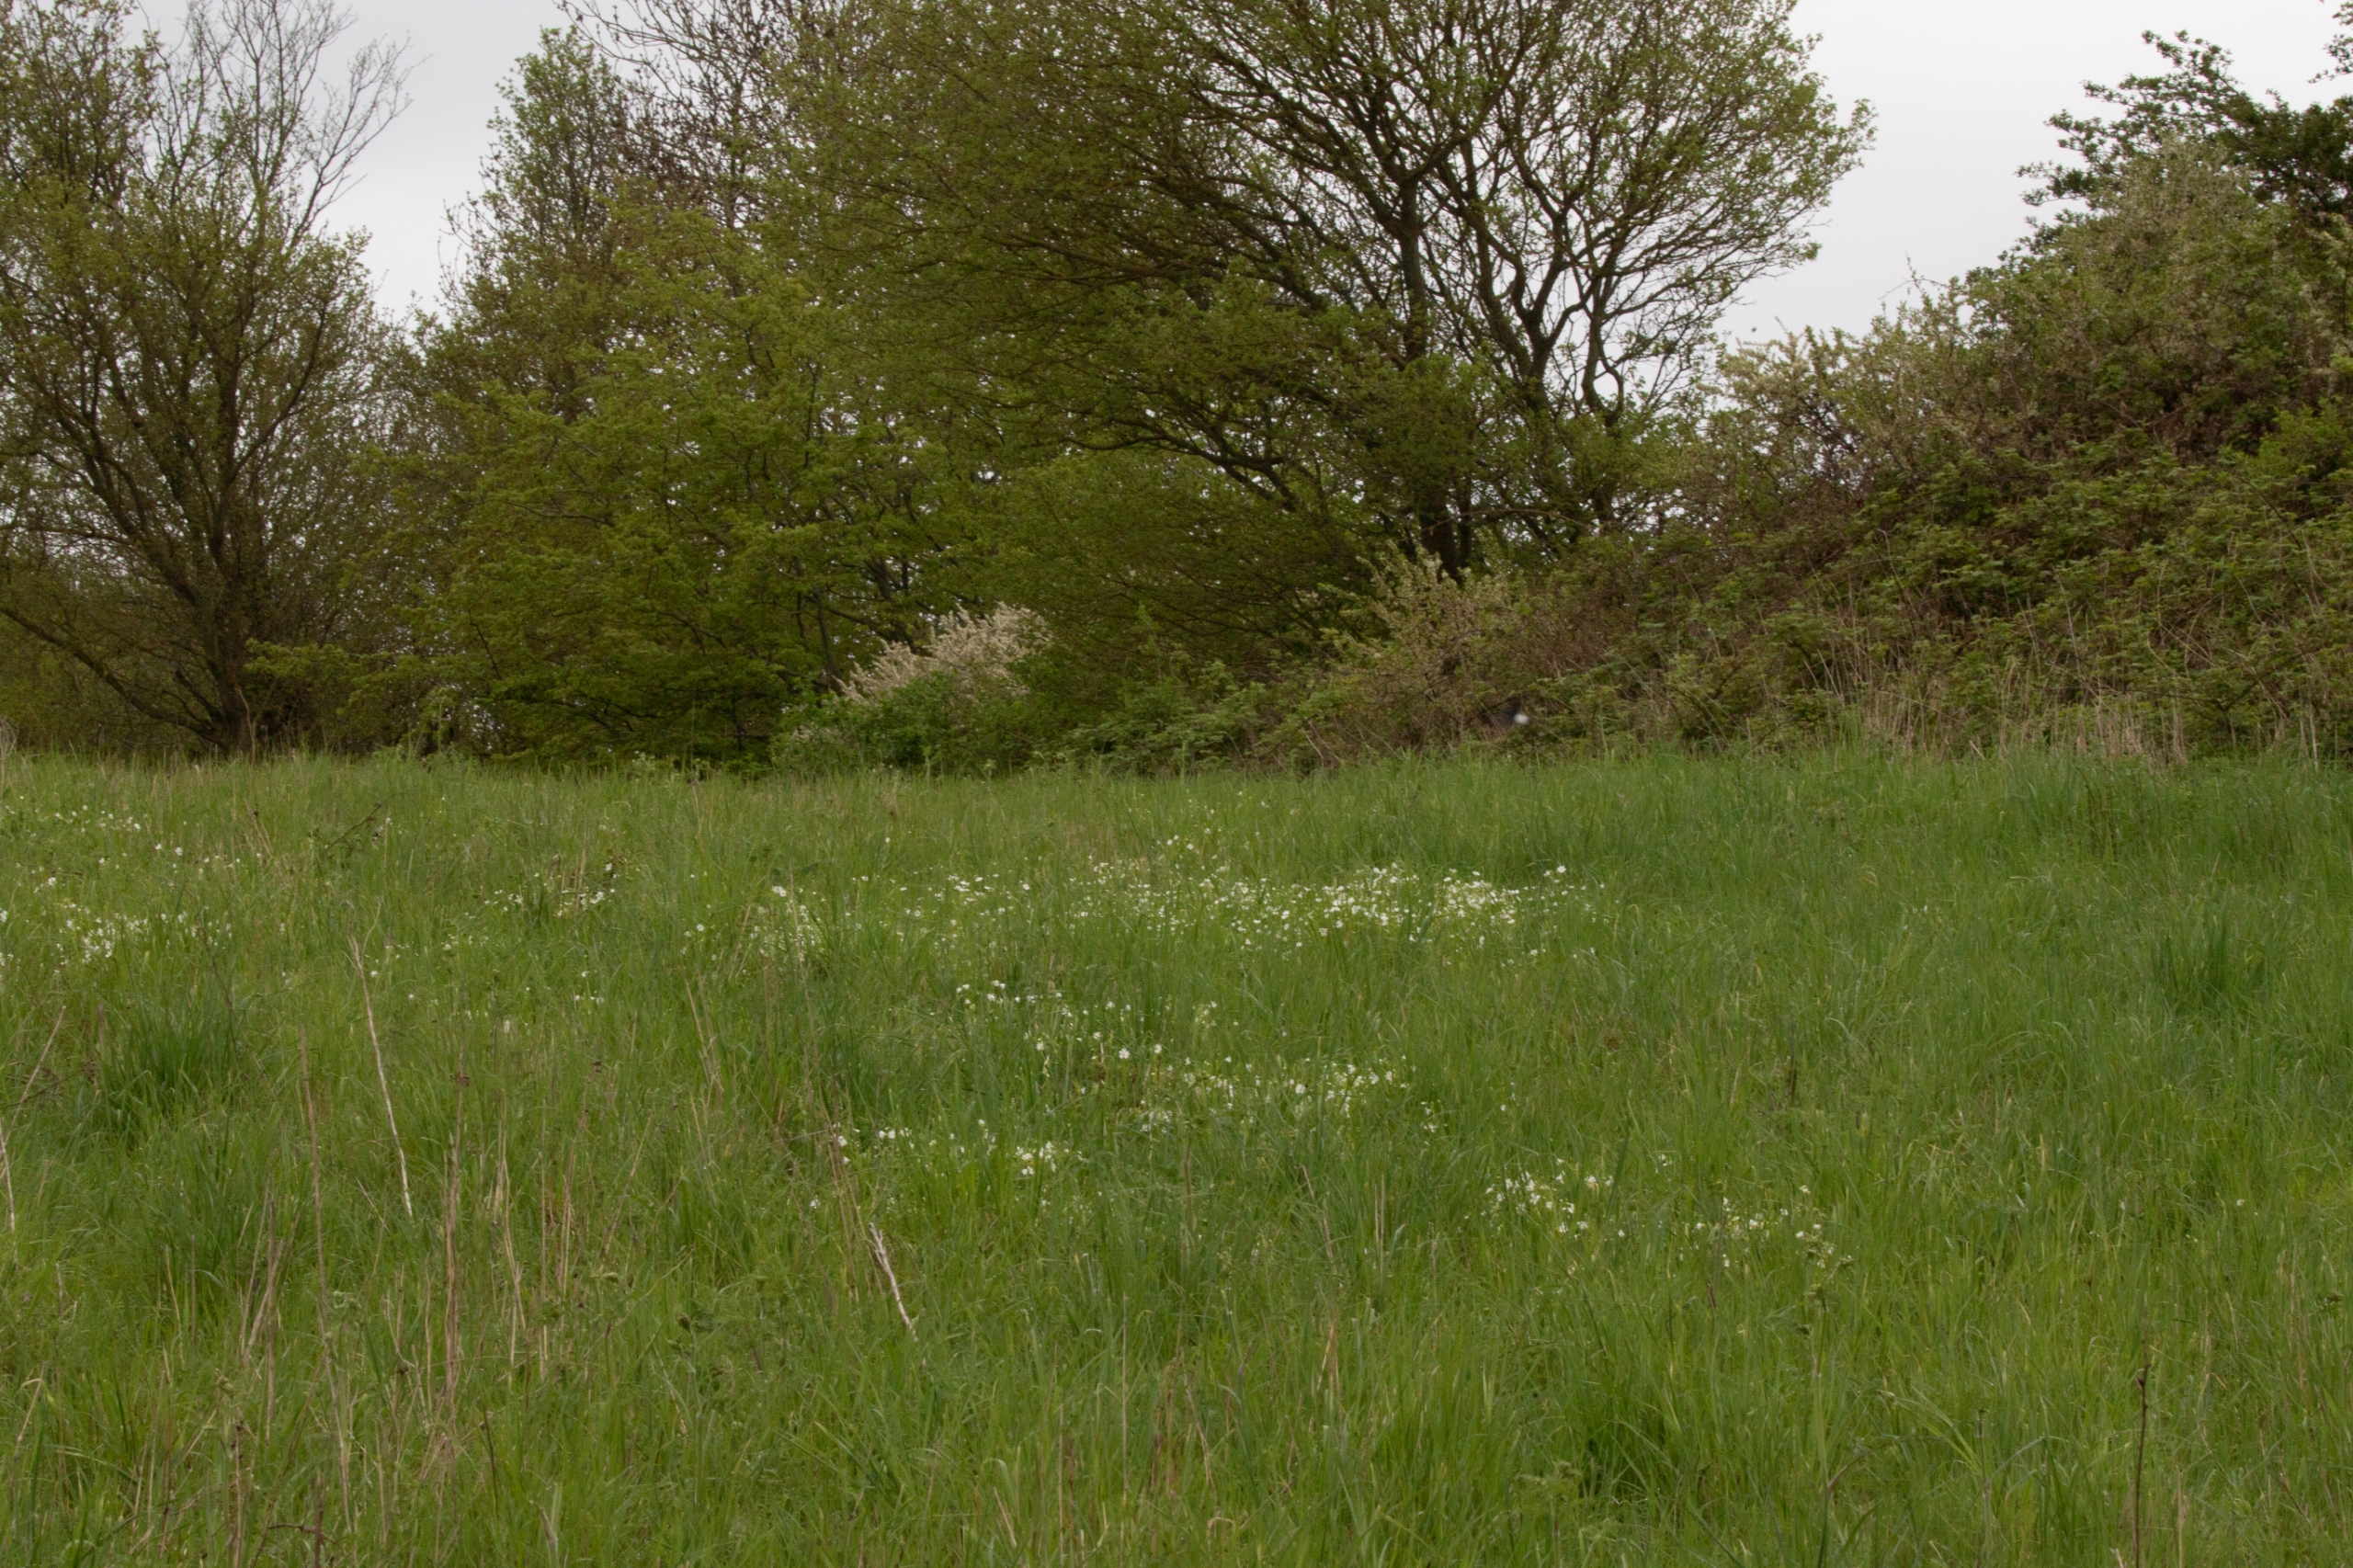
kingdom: Plantae
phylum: Tracheophyta
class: Magnoliopsida
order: Caryophyllales
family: Caryophyllaceae
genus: Rabelera
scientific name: Rabelera holostea
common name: Stor fladstjerne
